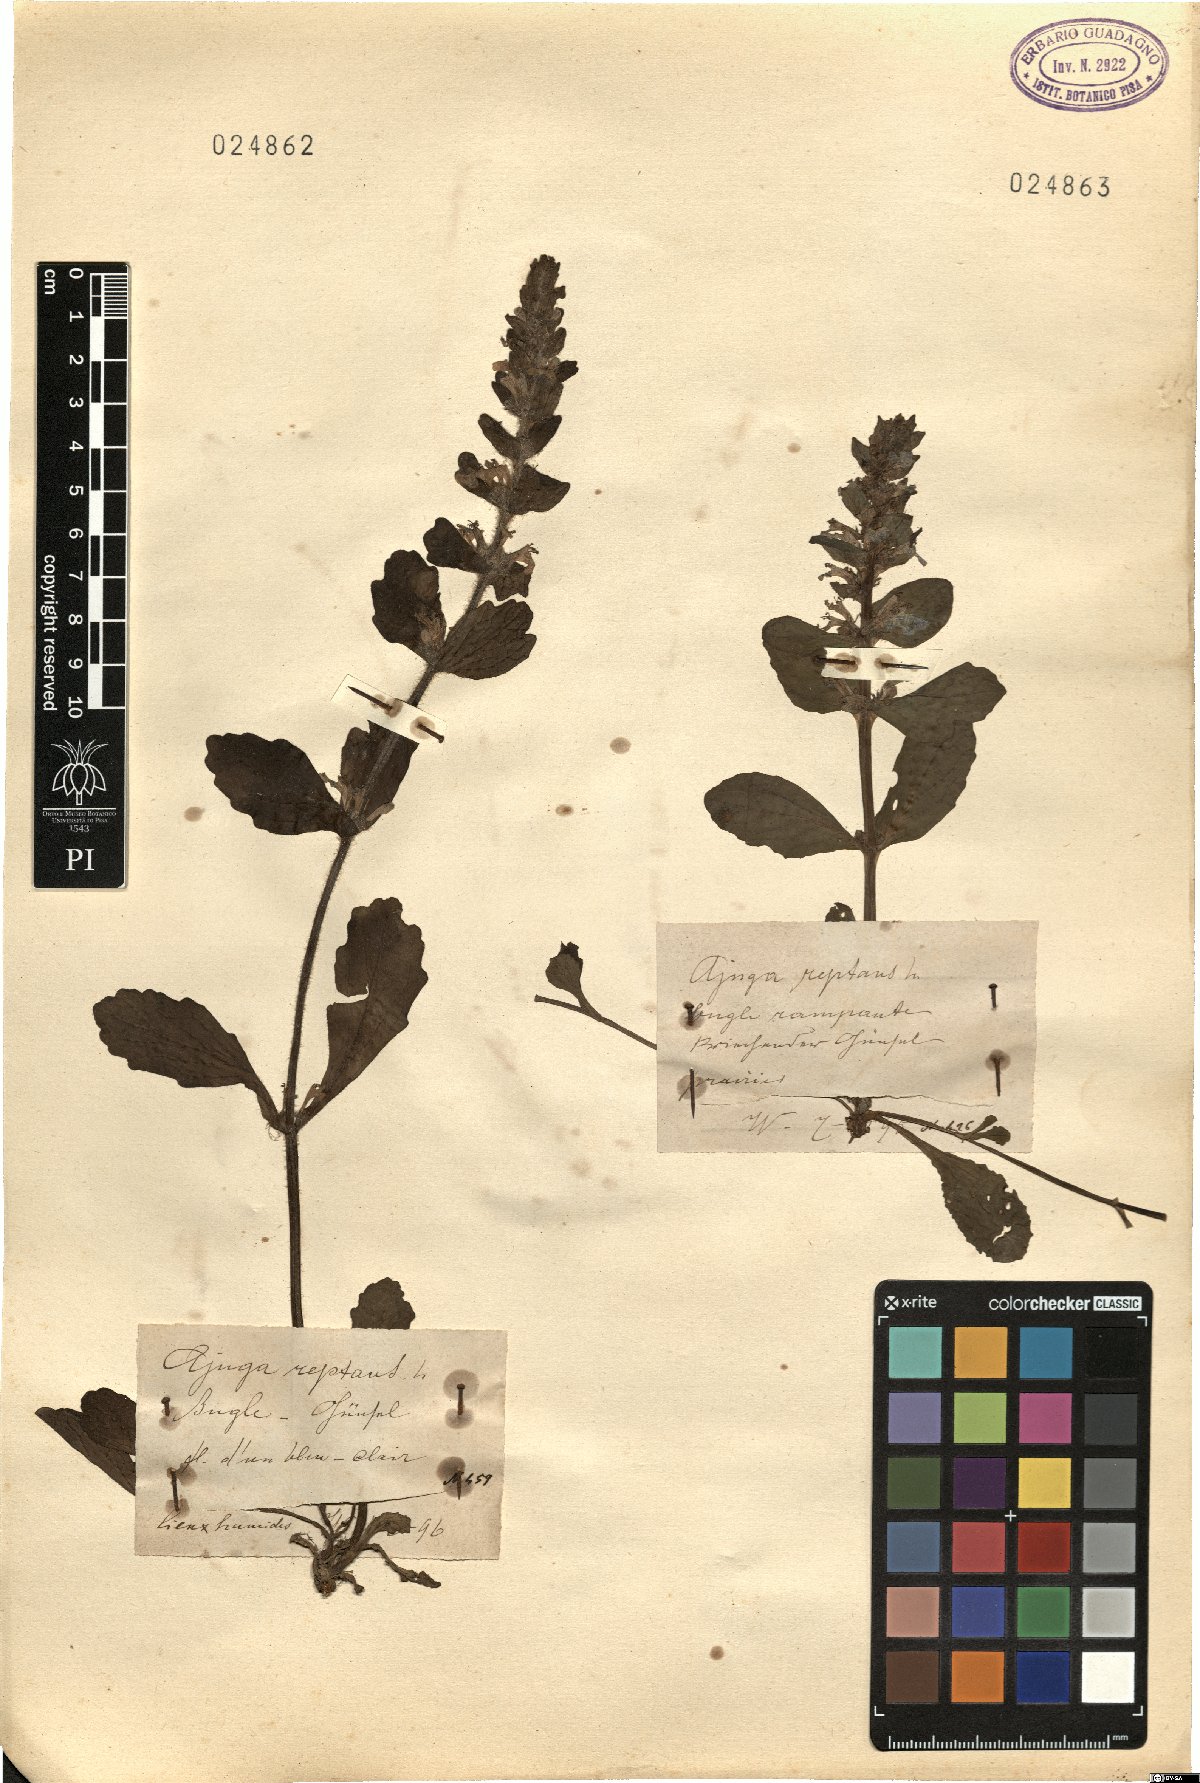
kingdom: Plantae
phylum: Tracheophyta
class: Magnoliopsida
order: Lamiales
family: Lamiaceae
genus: Ajuga
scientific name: Ajuga reptans
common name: Bugle
